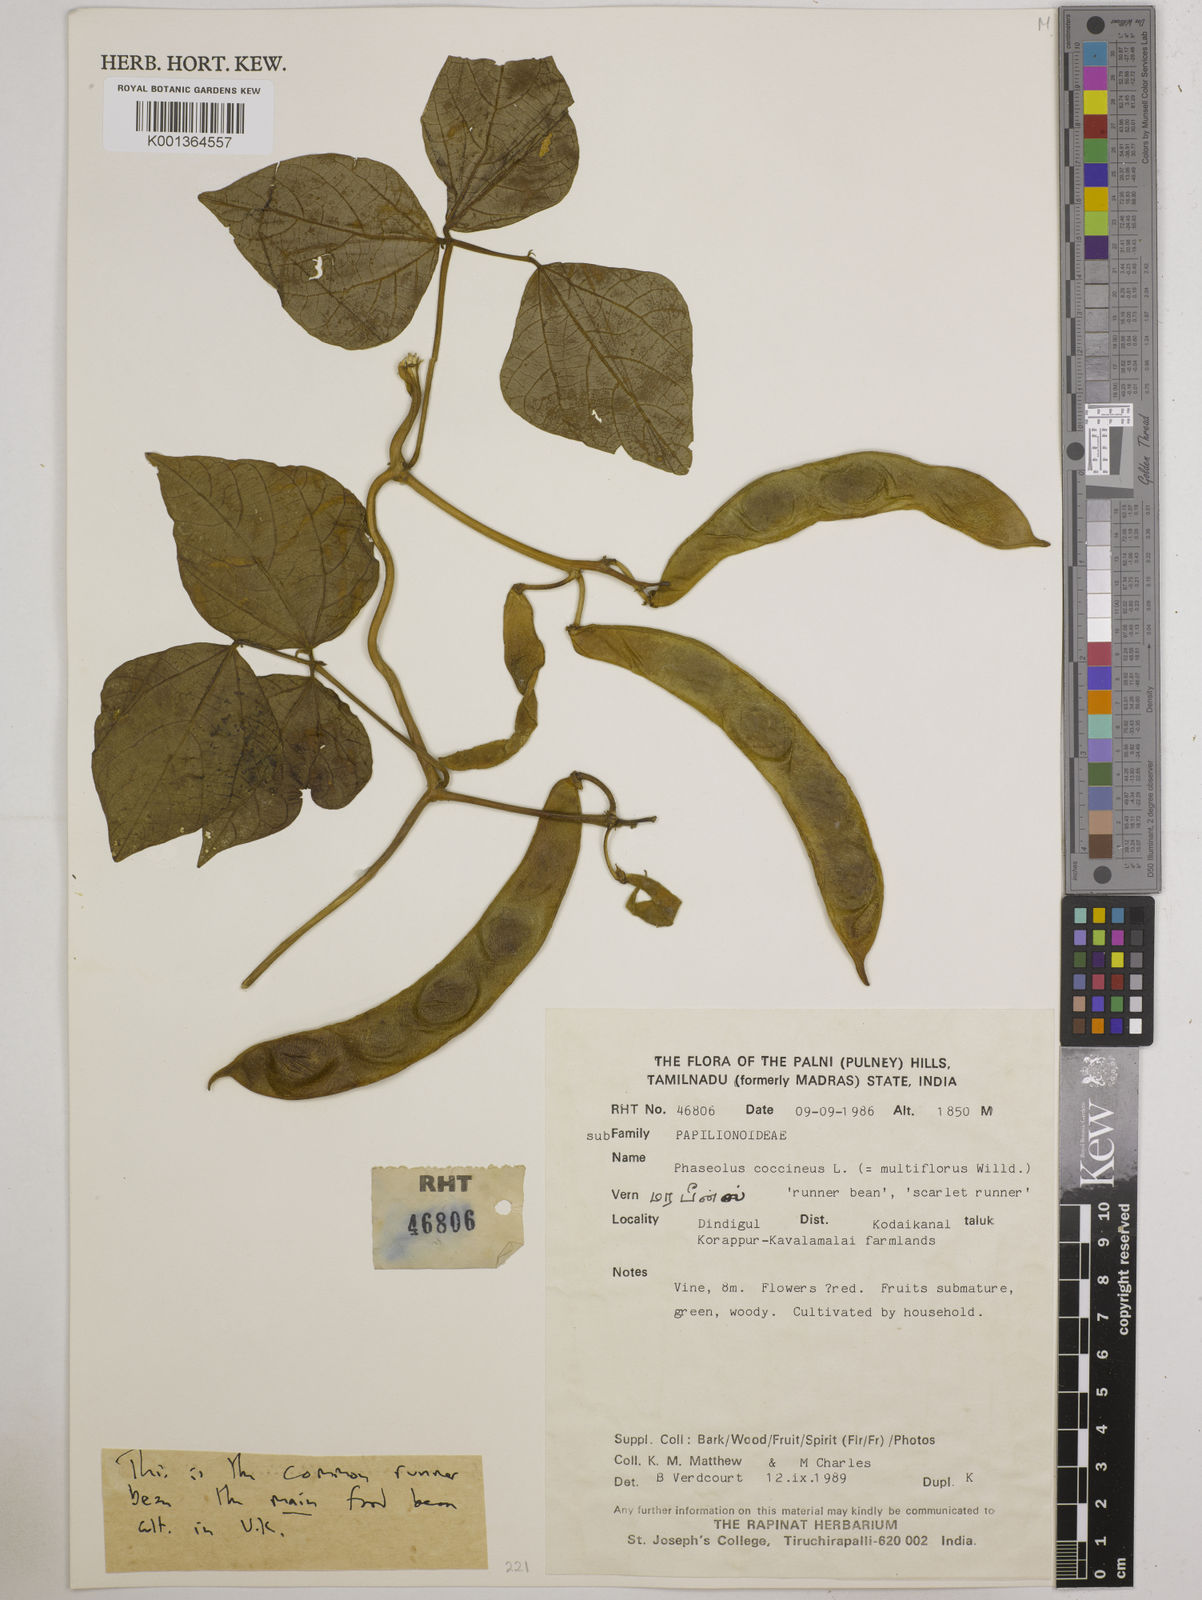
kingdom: Plantae
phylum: Tracheophyta
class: Magnoliopsida
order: Fabales
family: Fabaceae
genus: Phaseolus
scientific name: Phaseolus coccineus
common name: Runner bean
